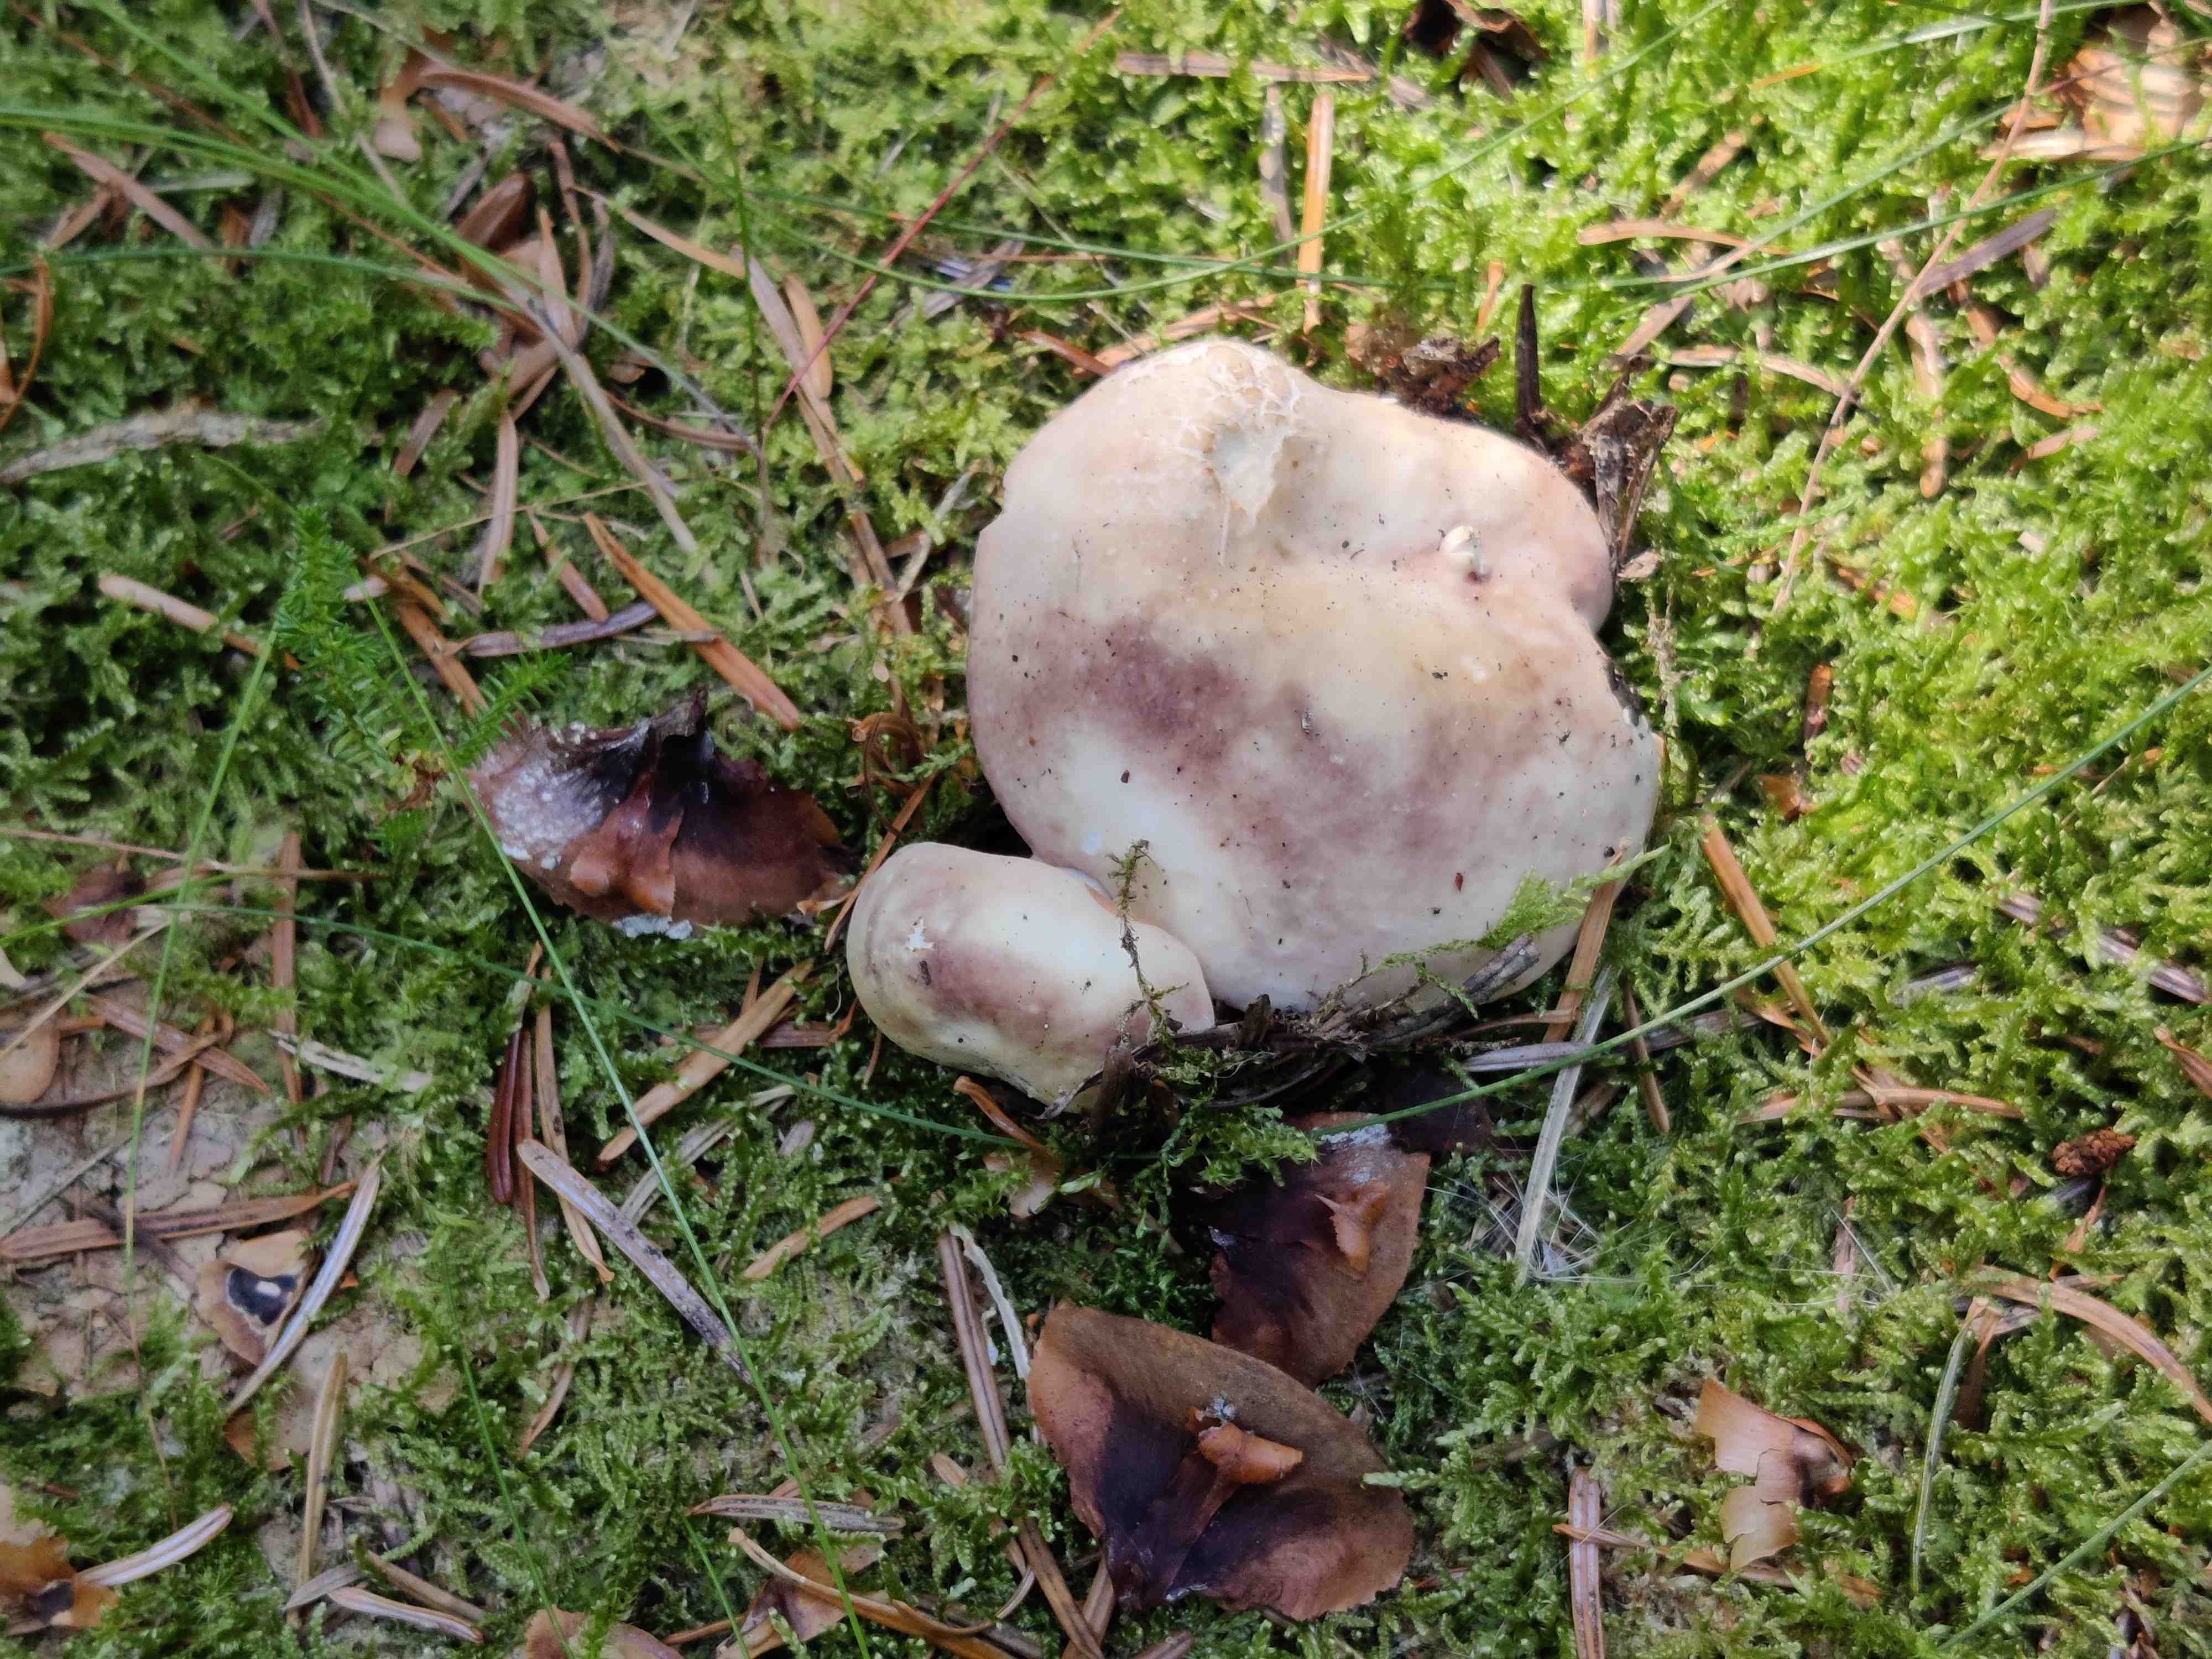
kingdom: Fungi
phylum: Basidiomycota
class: Agaricomycetes
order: Russulales
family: Russulaceae
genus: Russula
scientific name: Russula cyanoxantha
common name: broget skørhat
